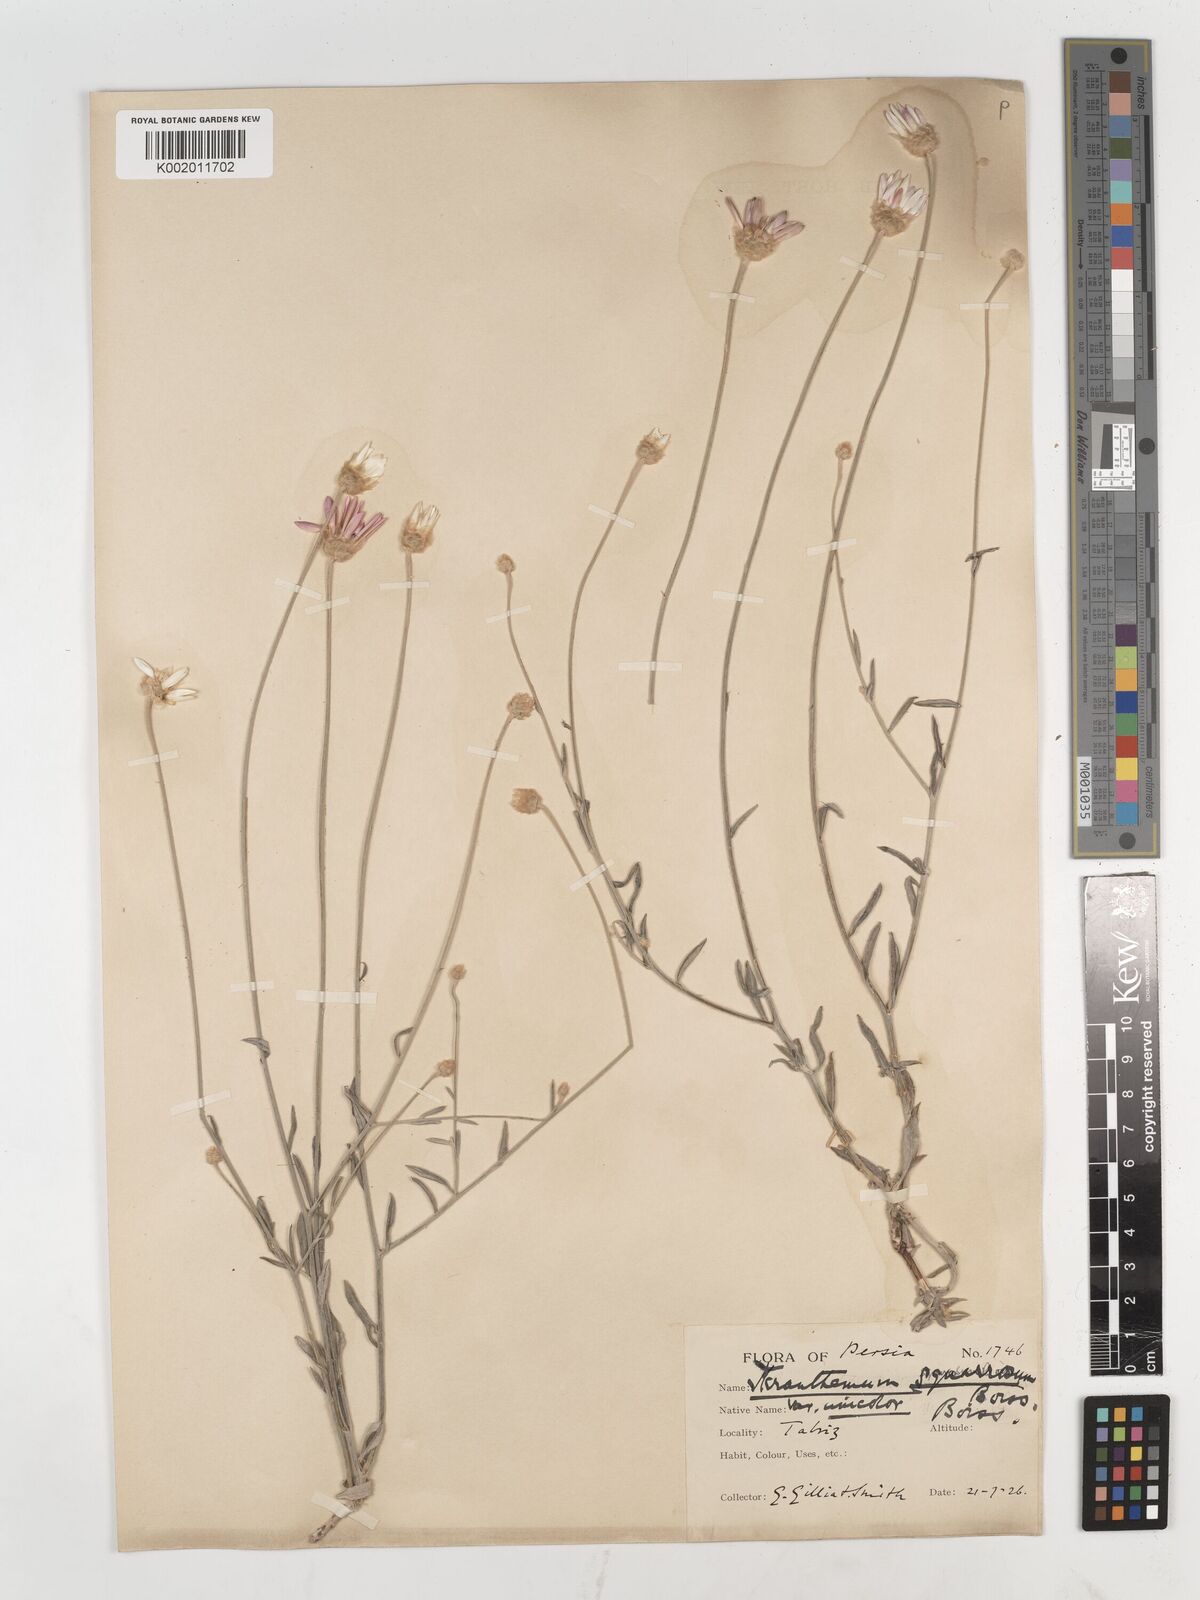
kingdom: Plantae
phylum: Tracheophyta
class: Magnoliopsida
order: Asterales
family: Asteraceae
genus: Xeranthemum
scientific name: Xeranthemum squarrosum
